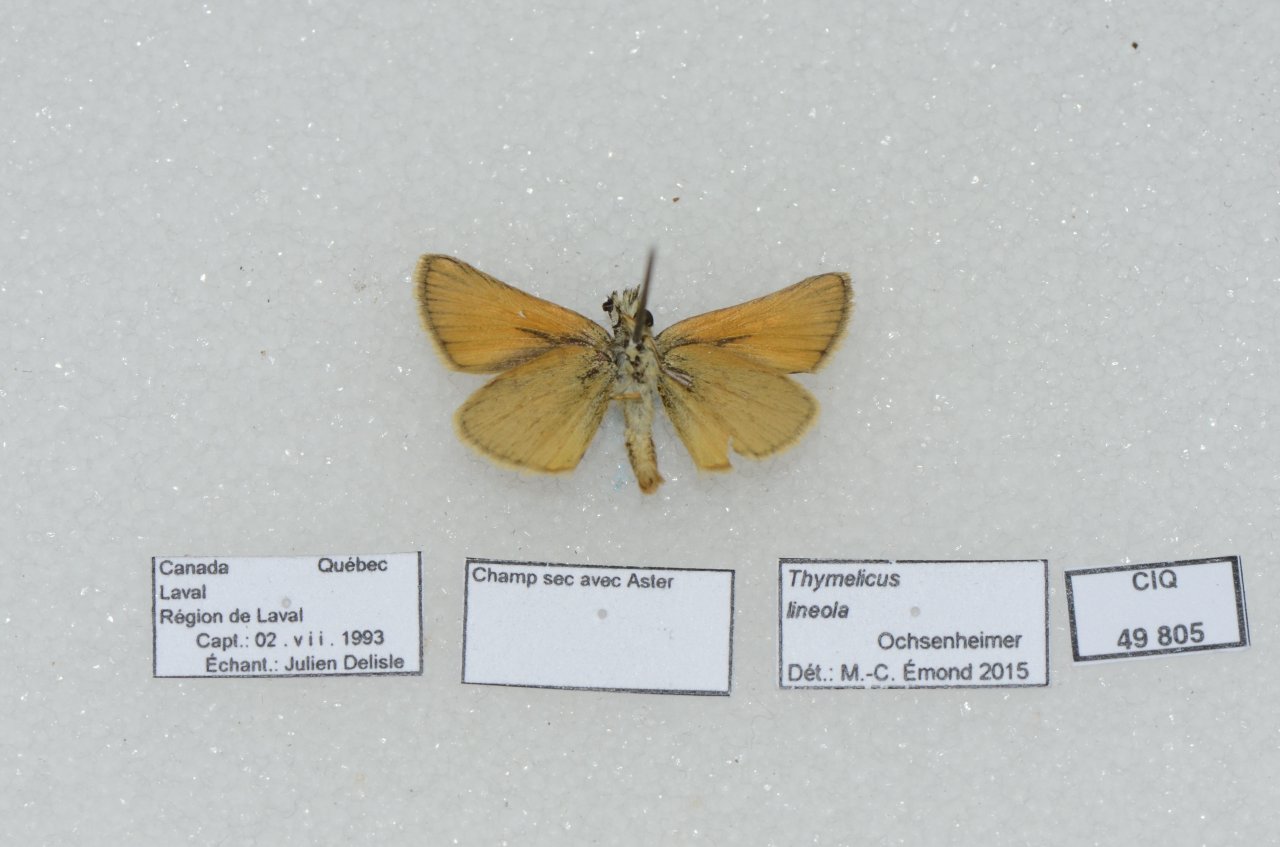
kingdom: Animalia
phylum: Arthropoda
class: Insecta
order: Lepidoptera
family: Hesperiidae
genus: Thymelicus
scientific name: Thymelicus lineola
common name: European Skipper
